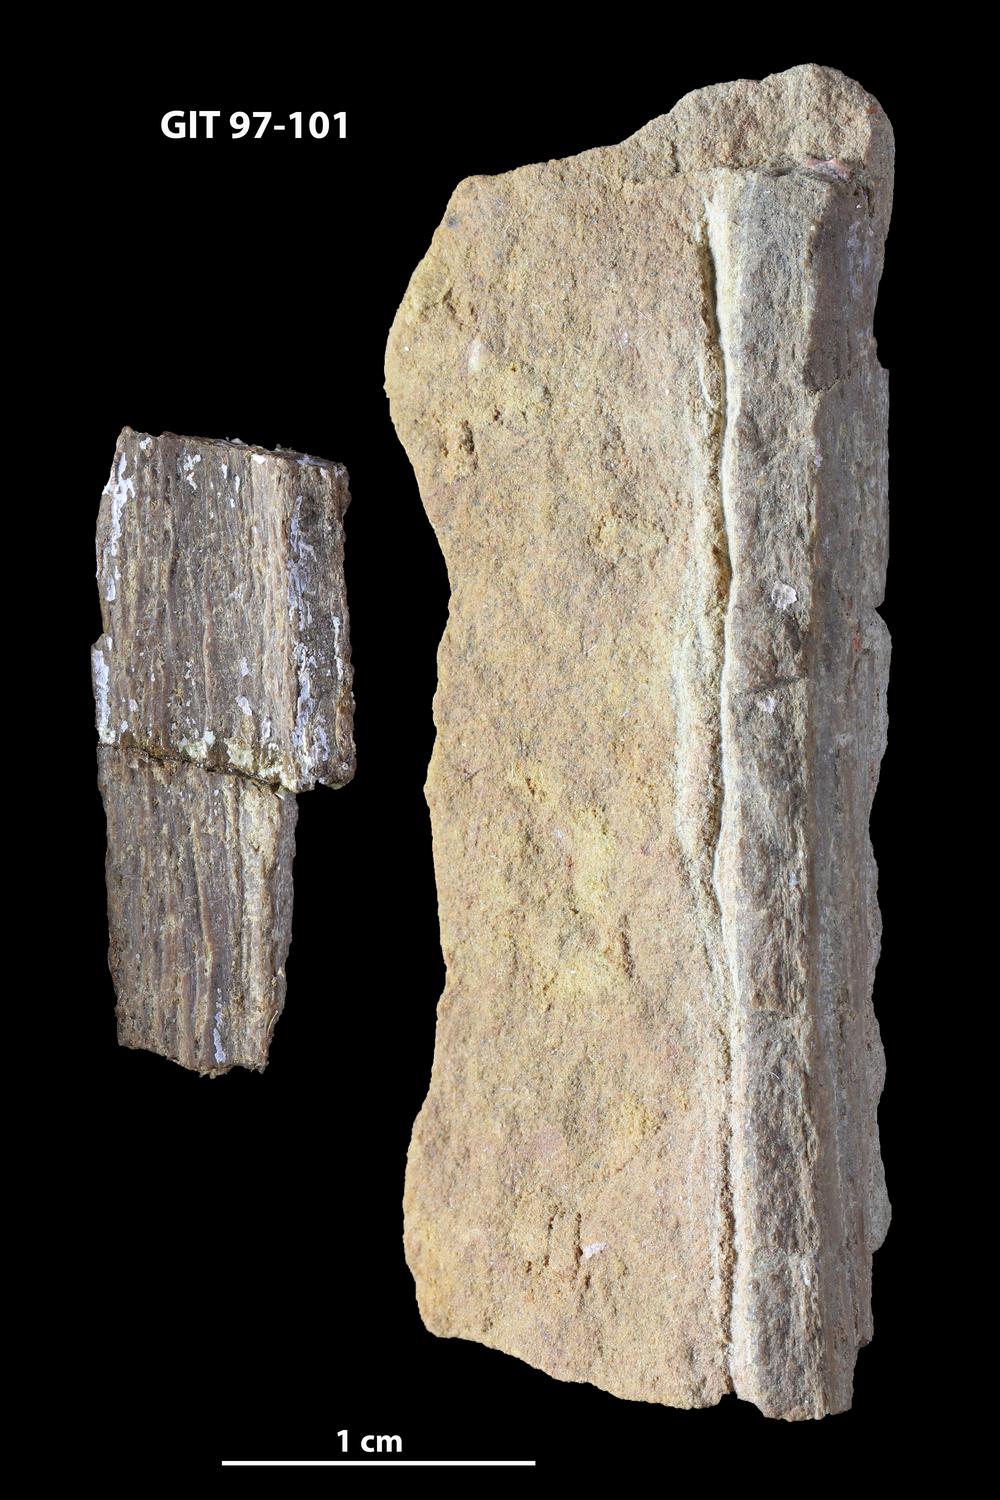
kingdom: Animalia
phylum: Chordata
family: Holonematidae
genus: Holonema
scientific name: Holonema
